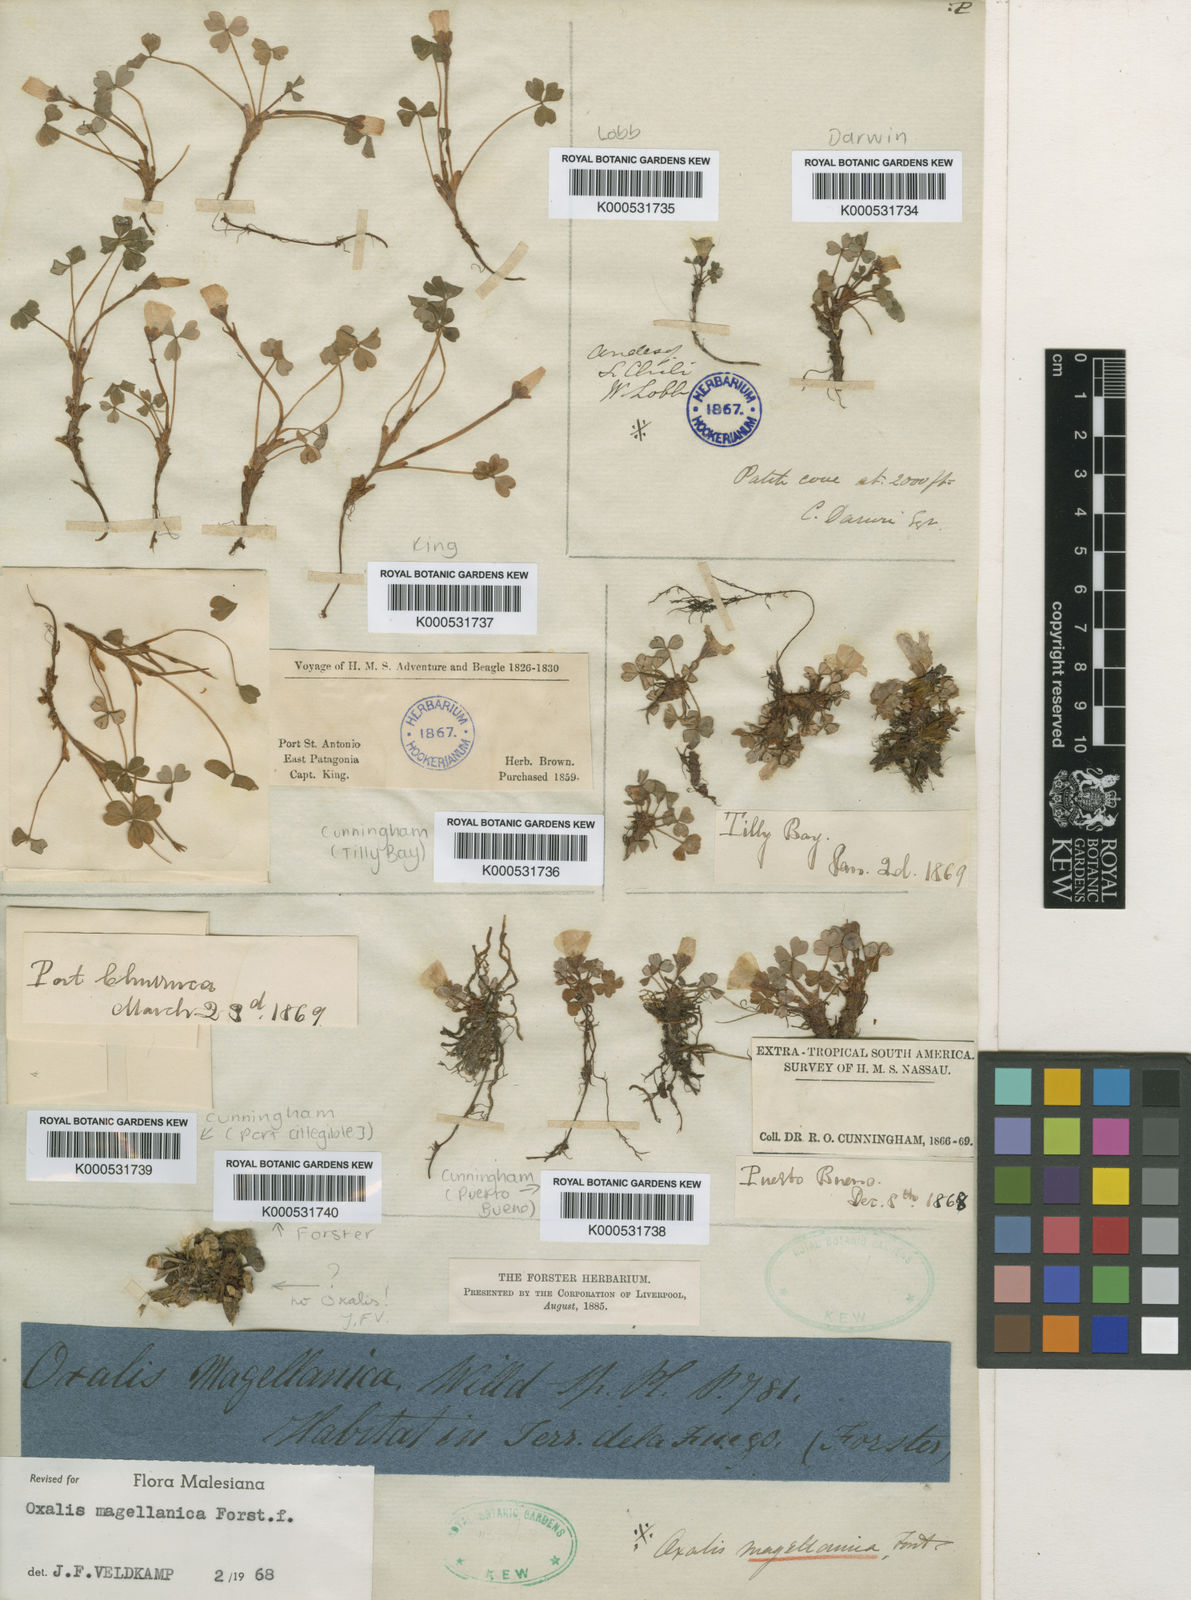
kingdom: Plantae
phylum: Tracheophyta
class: Magnoliopsida
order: Oxalidales
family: Oxalidaceae
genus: Oxalis
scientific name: Oxalis magellanica
